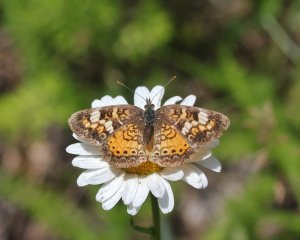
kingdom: Animalia
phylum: Arthropoda
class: Insecta
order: Lepidoptera
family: Nymphalidae
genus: Phyciodes
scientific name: Phyciodes tharos
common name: Northern Crescent
